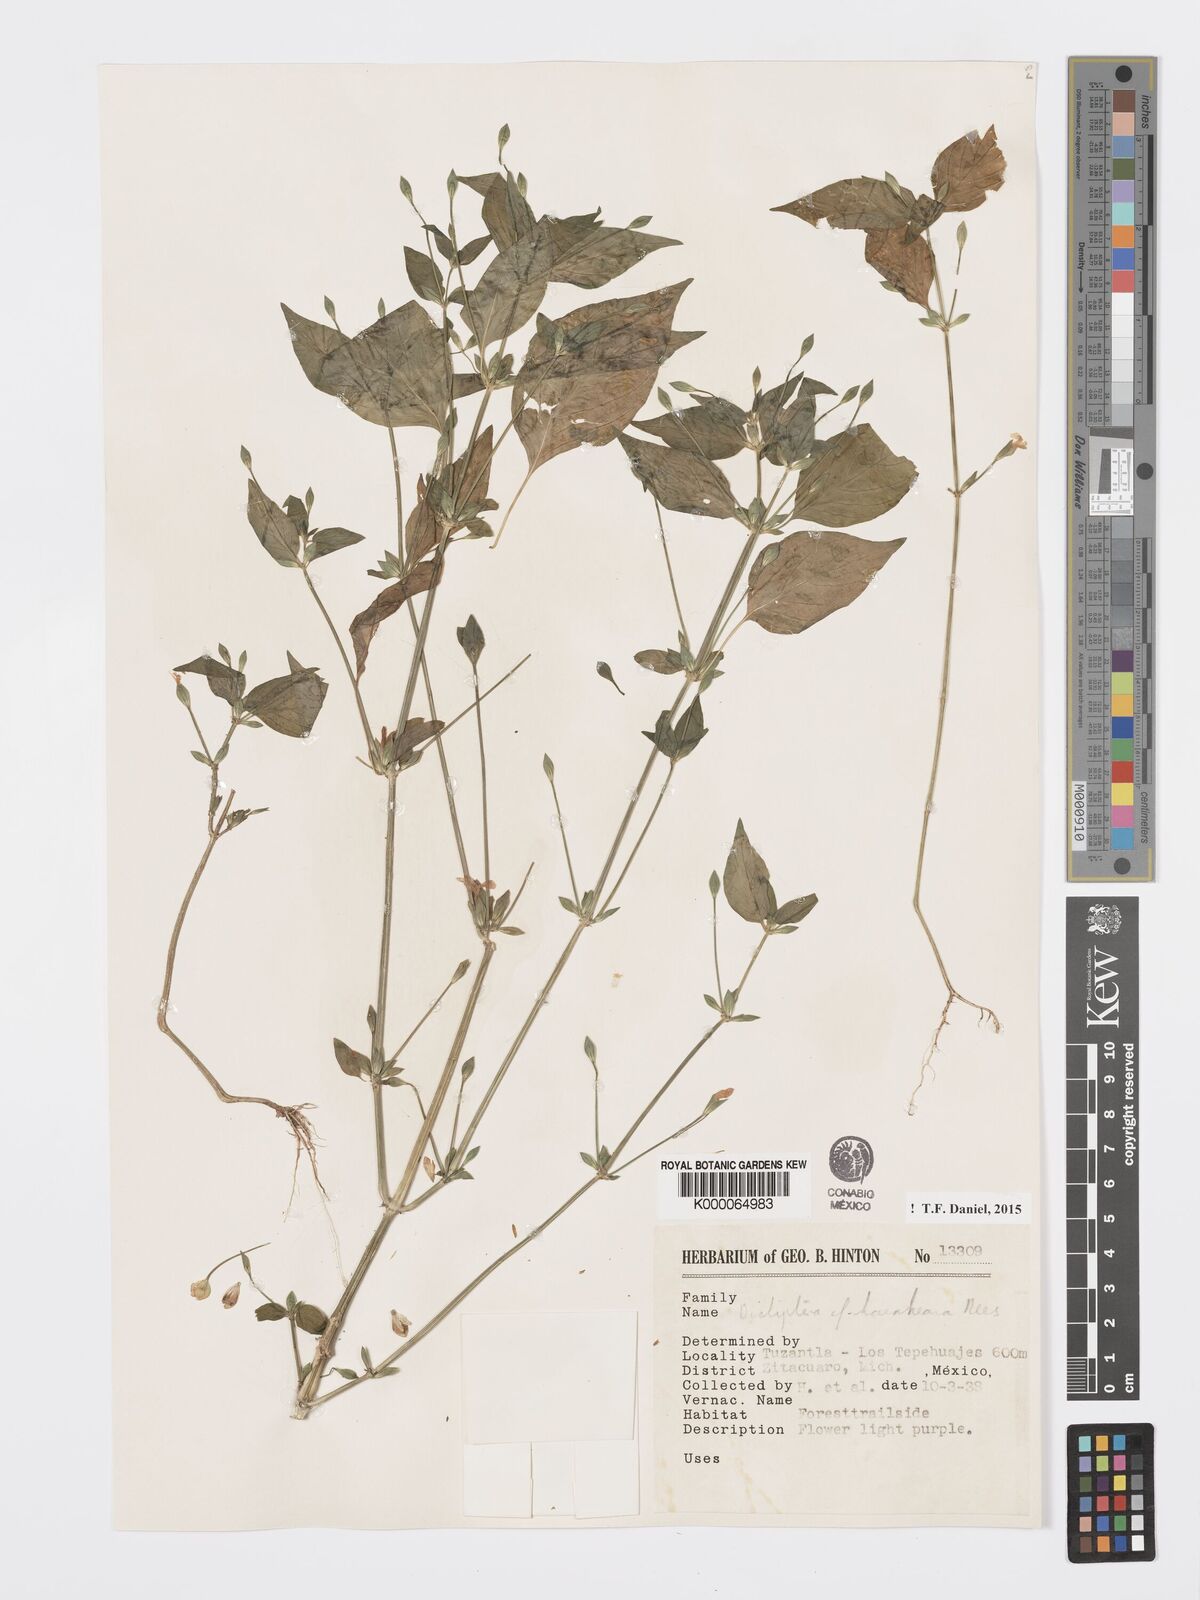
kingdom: Plantae
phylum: Tracheophyta
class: Magnoliopsida
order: Lamiales
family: Acanthaceae
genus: Dicliptera
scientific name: Dicliptera haenkeana
